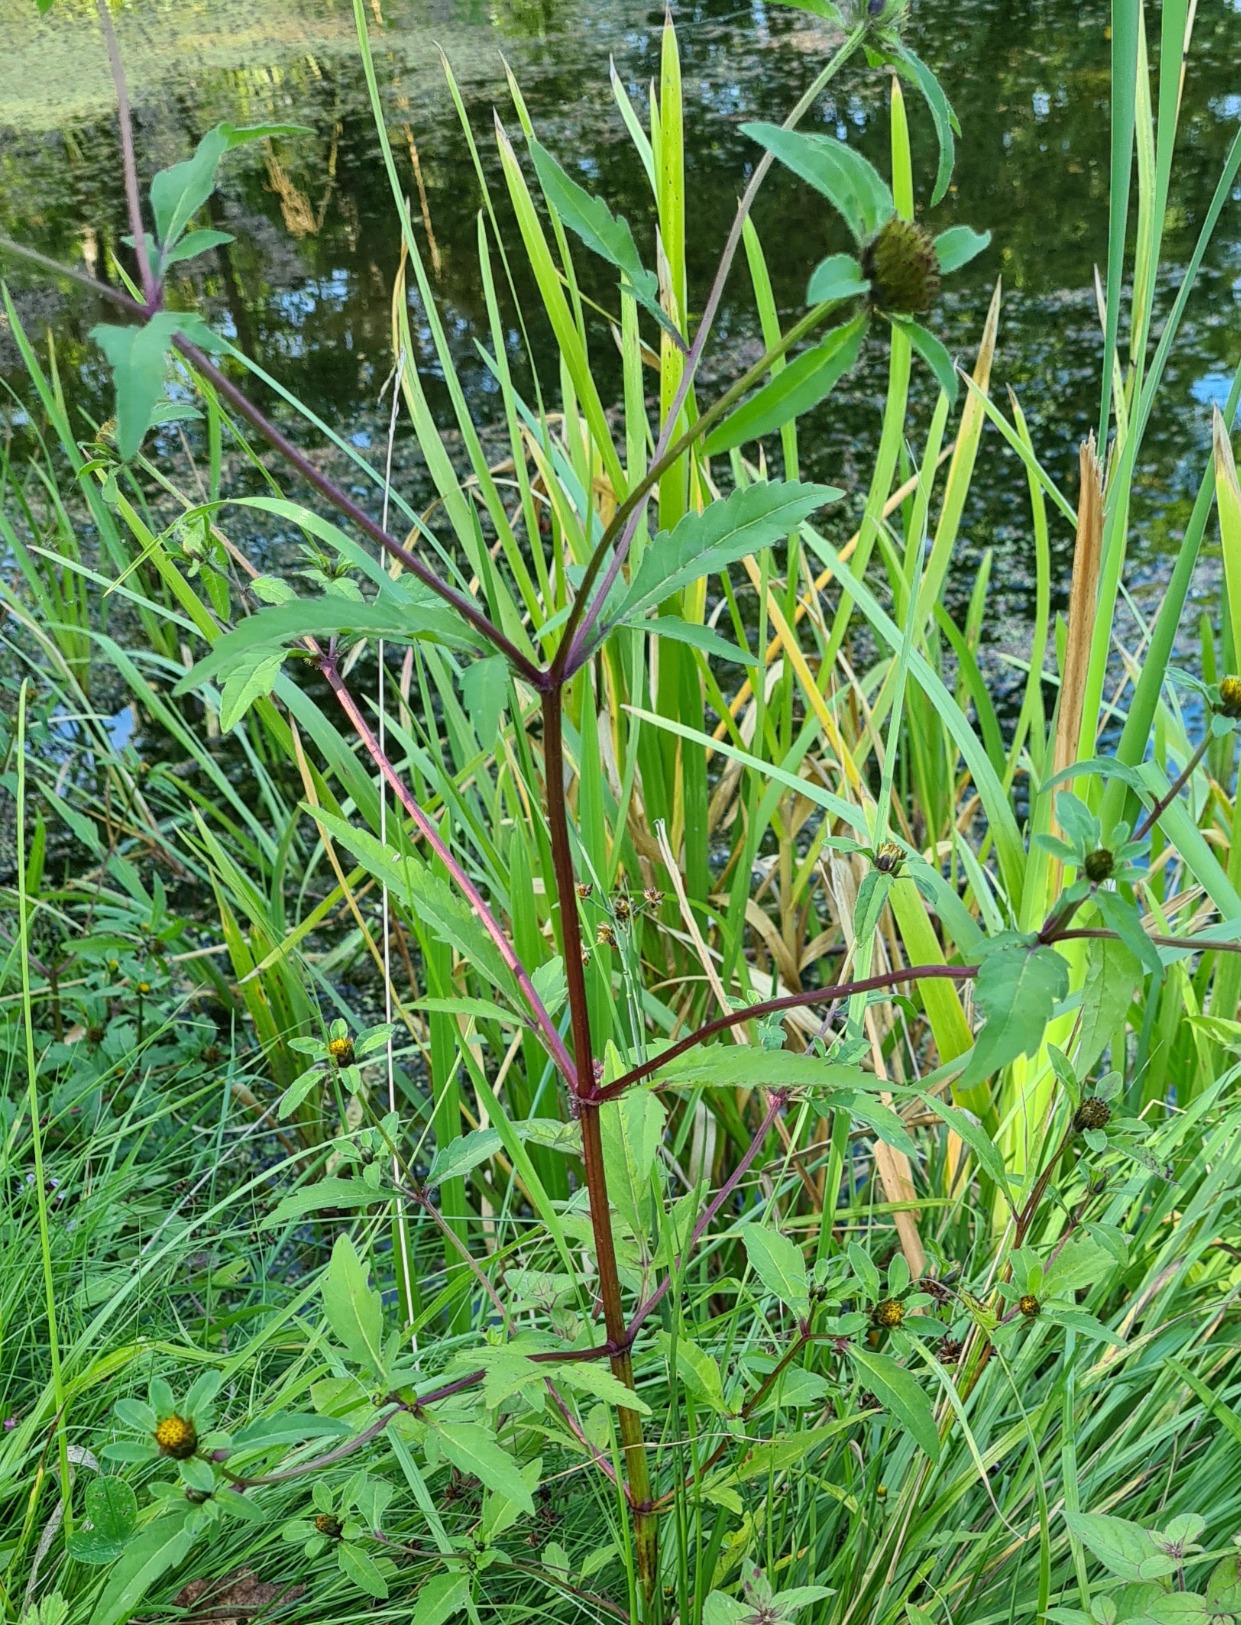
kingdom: Plantae
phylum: Tracheophyta
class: Magnoliopsida
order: Asterales
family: Asteraceae
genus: Bidens
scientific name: Bidens tripartita
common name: Fliget brøndsel
